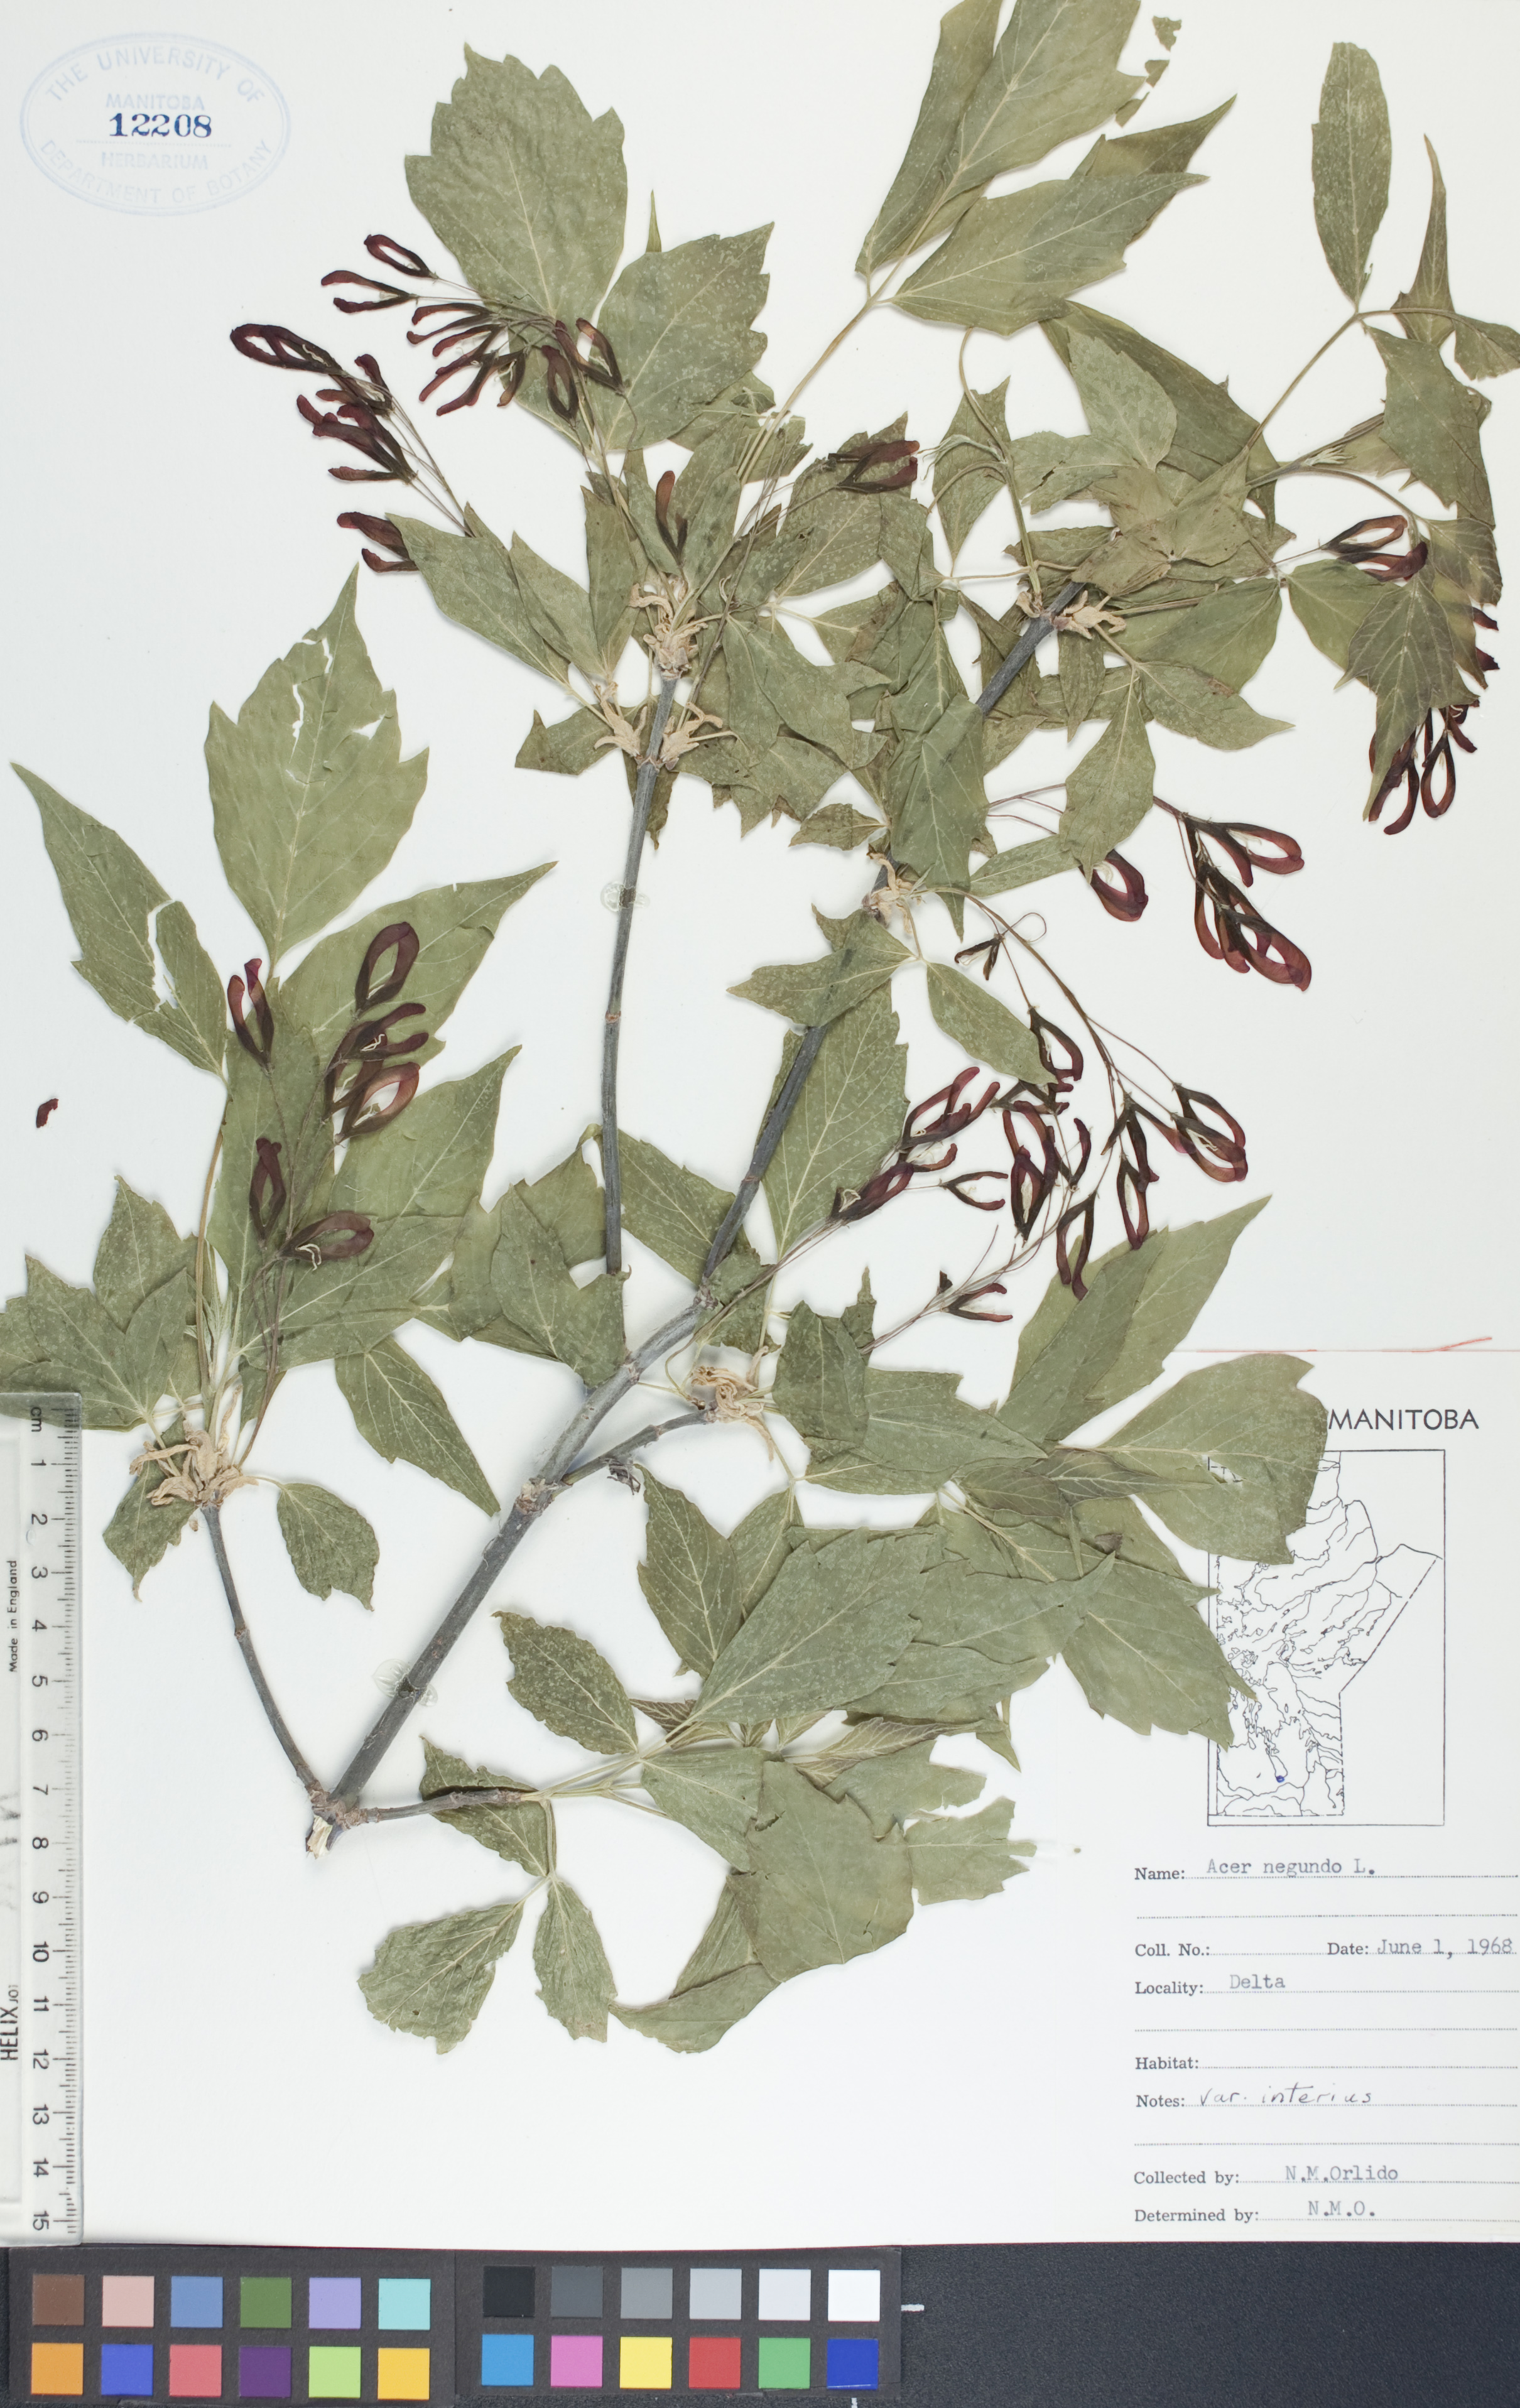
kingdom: Plantae
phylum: Tracheophyta
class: Magnoliopsida
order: Sapindales
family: Sapindaceae
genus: Acer
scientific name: Acer negundo
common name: Ashleaf maple
